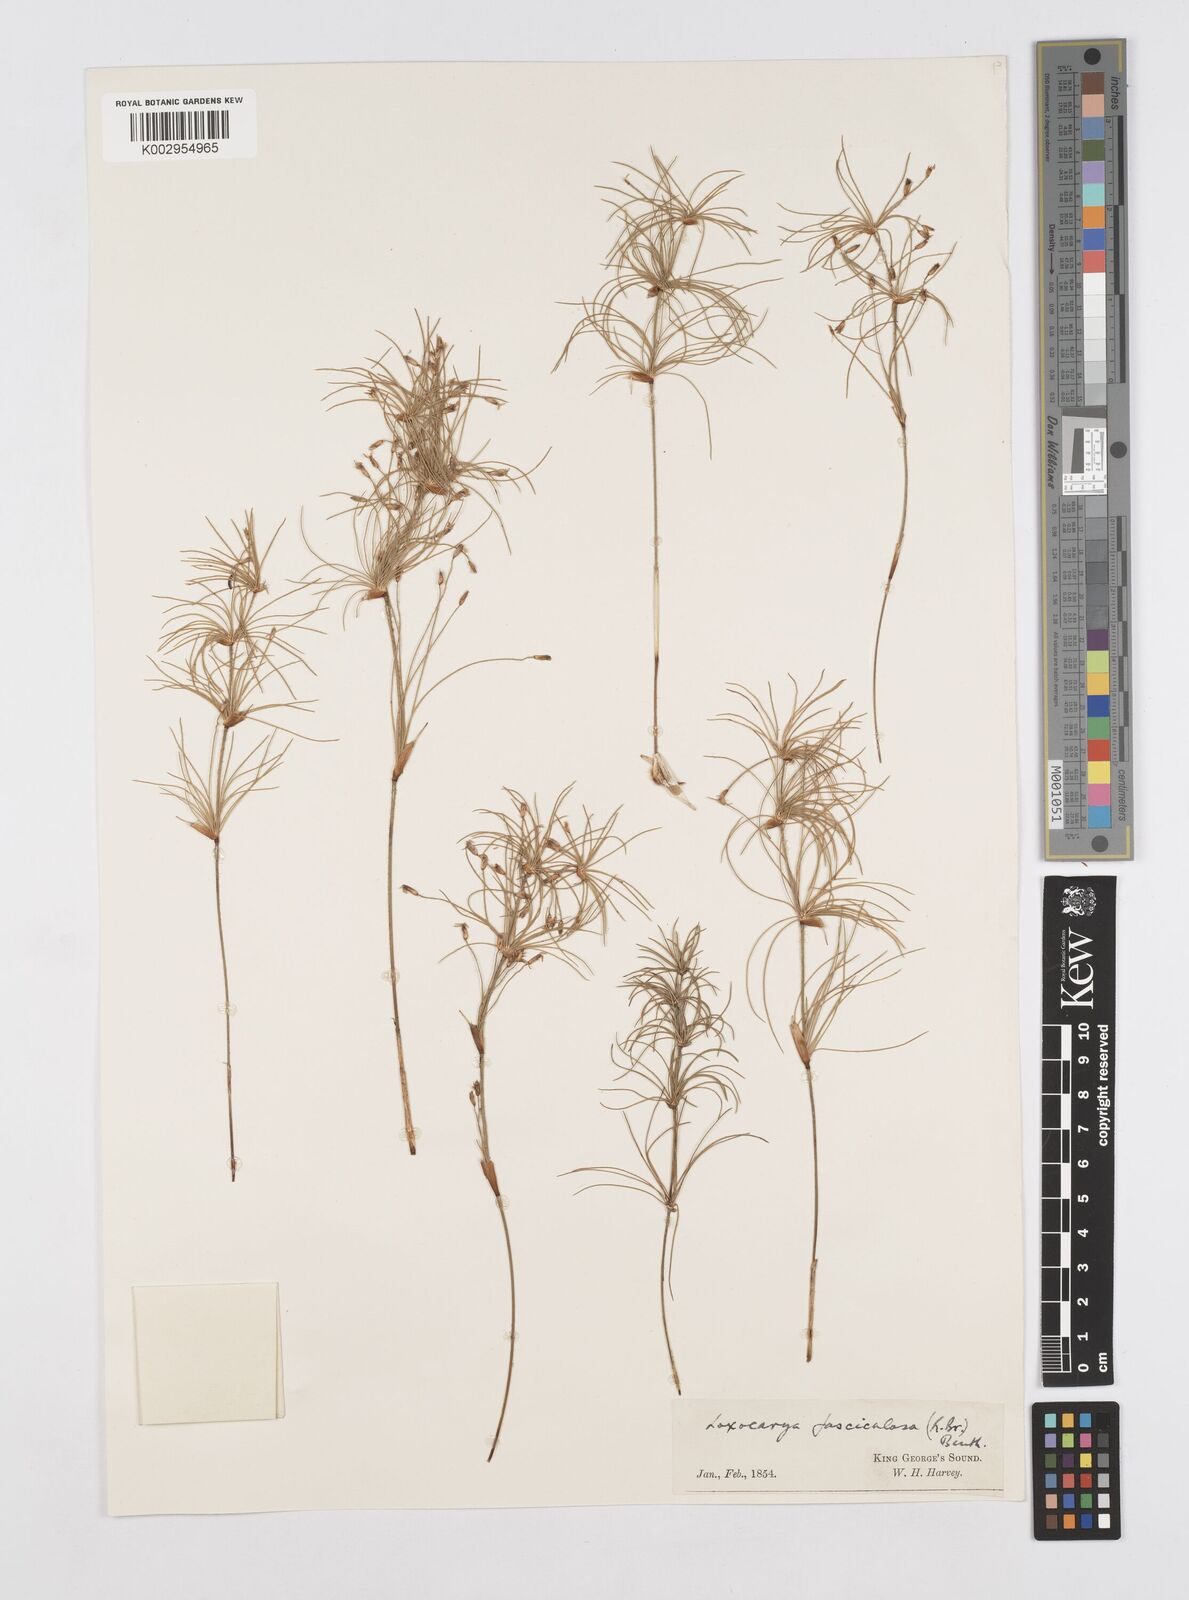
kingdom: Plantae
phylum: Tracheophyta
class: Liliopsida
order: Poales
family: Restionaceae
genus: Desmocladus
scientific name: Desmocladus fasciculatus
